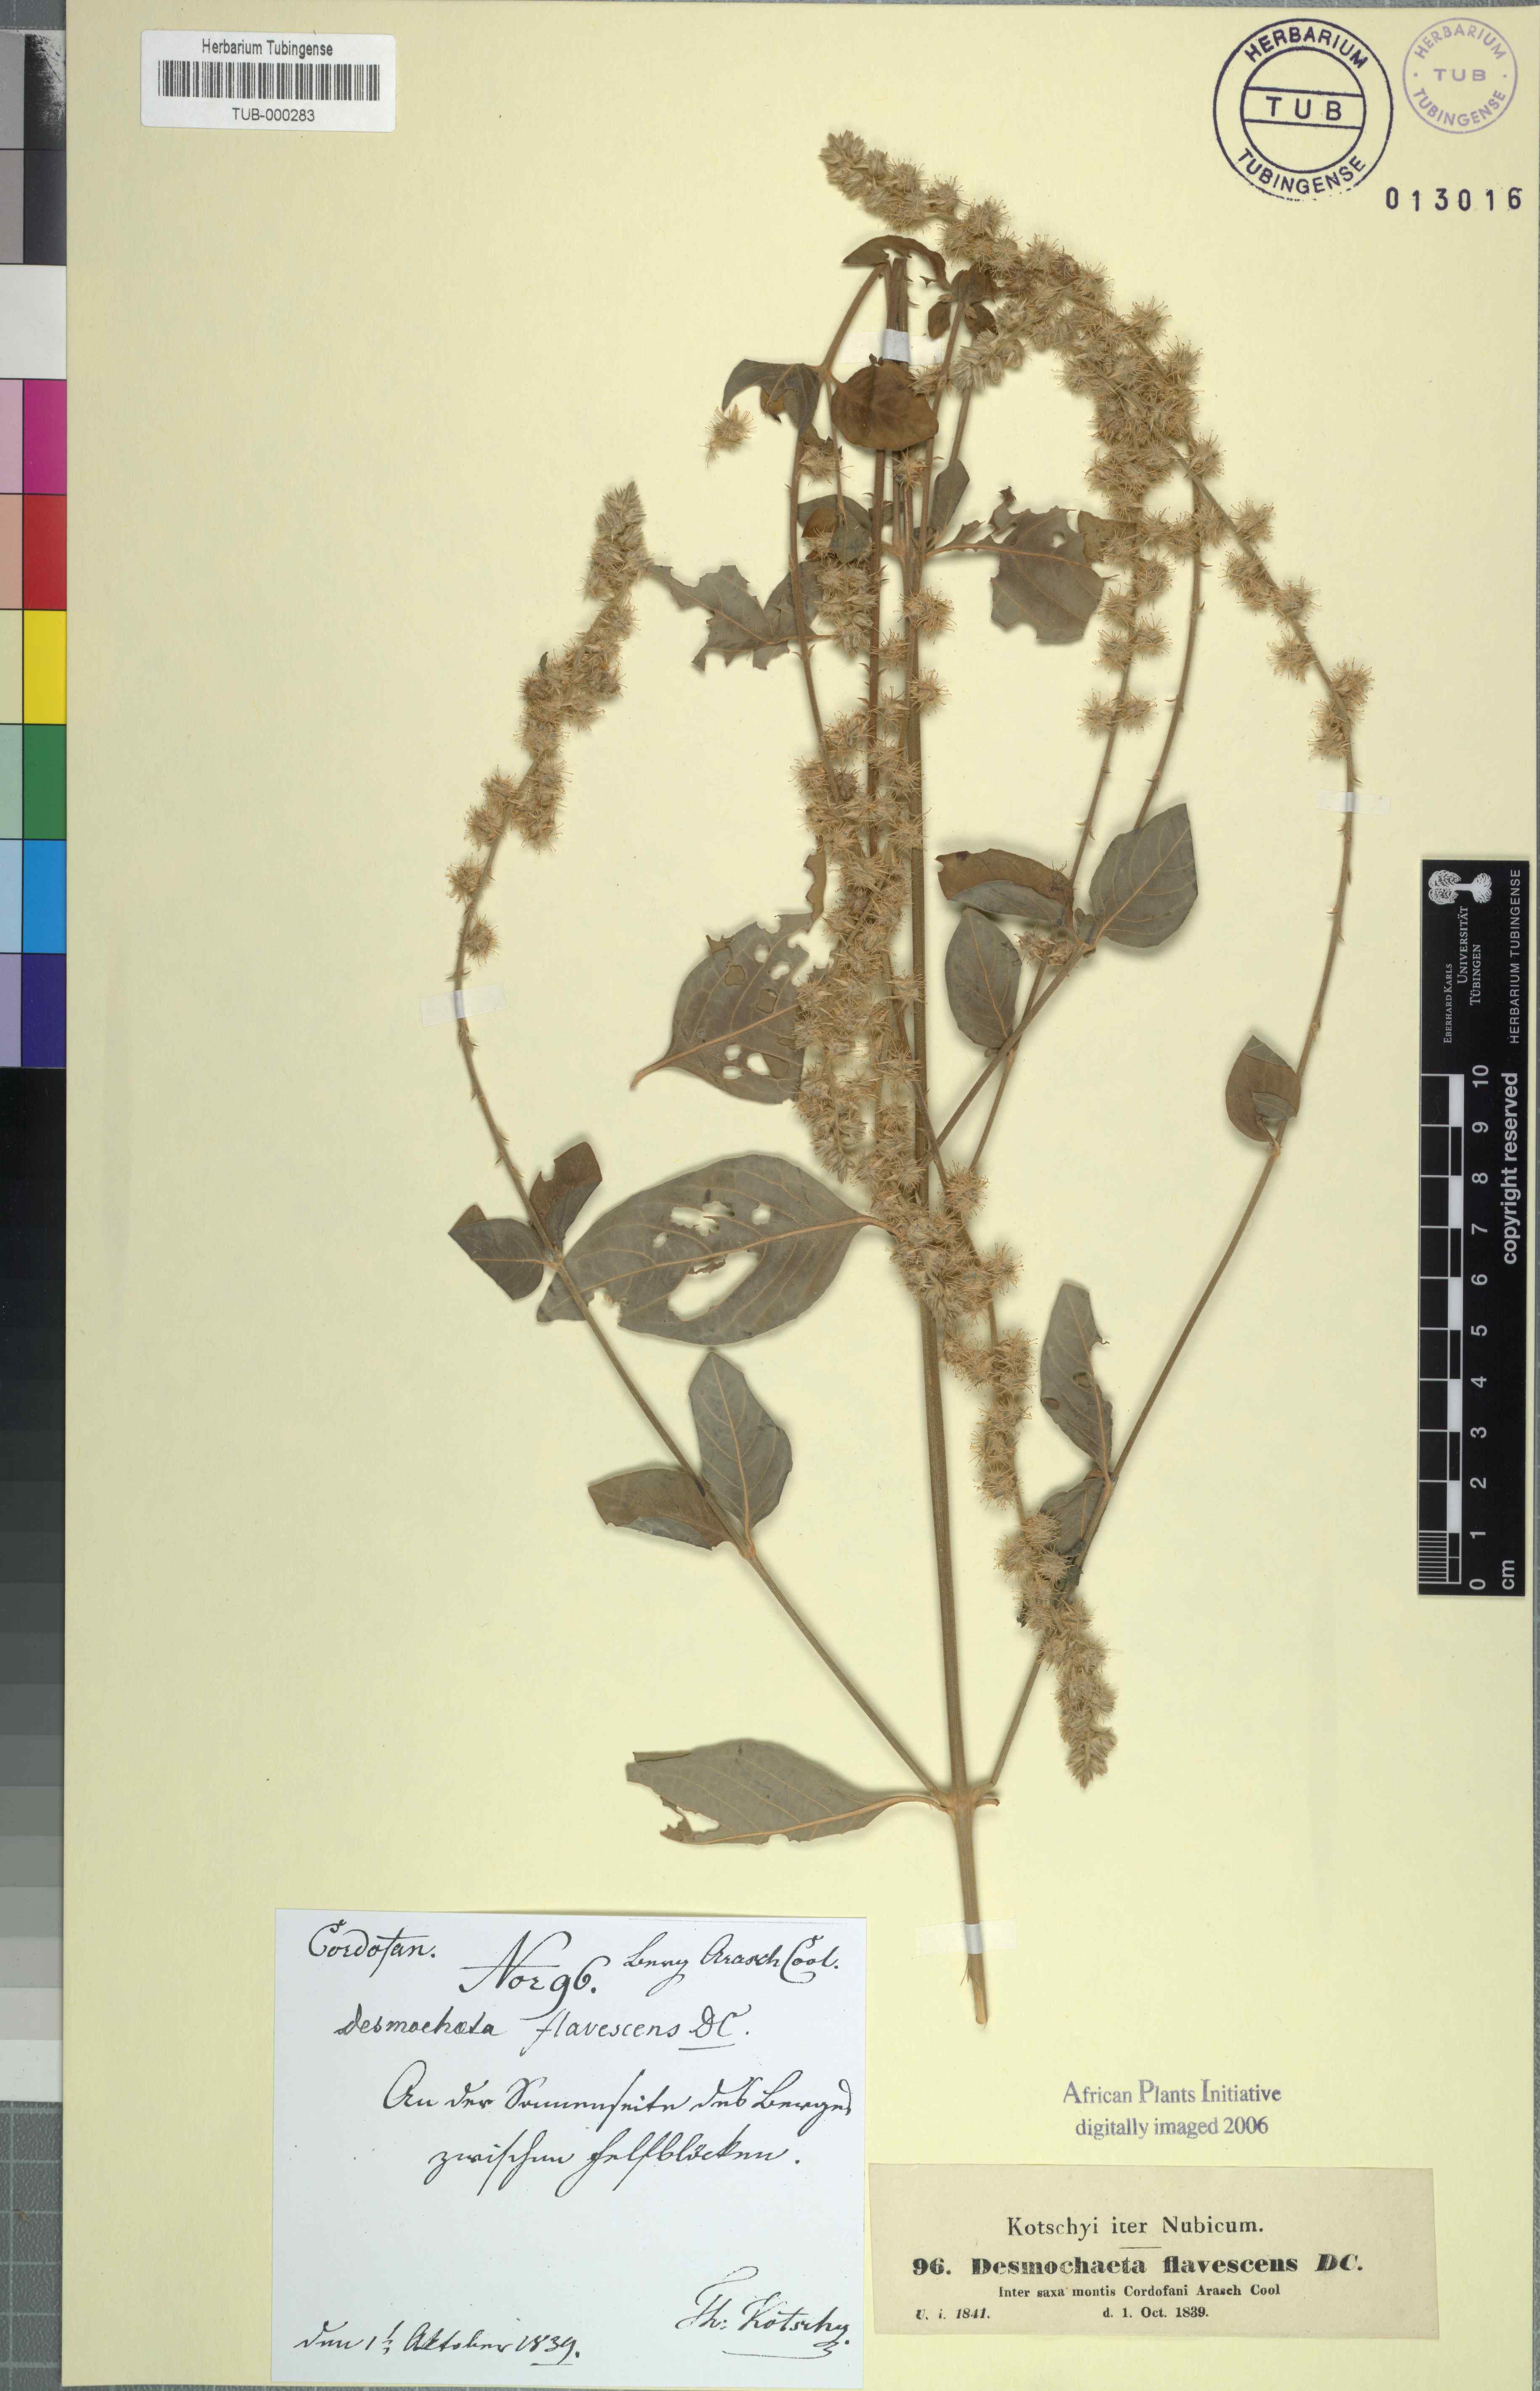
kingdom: Plantae
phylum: Tracheophyta
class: Magnoliopsida
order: Caryophyllales
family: Amaranthaceae
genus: Pupalia
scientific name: Pupalia lappacea
